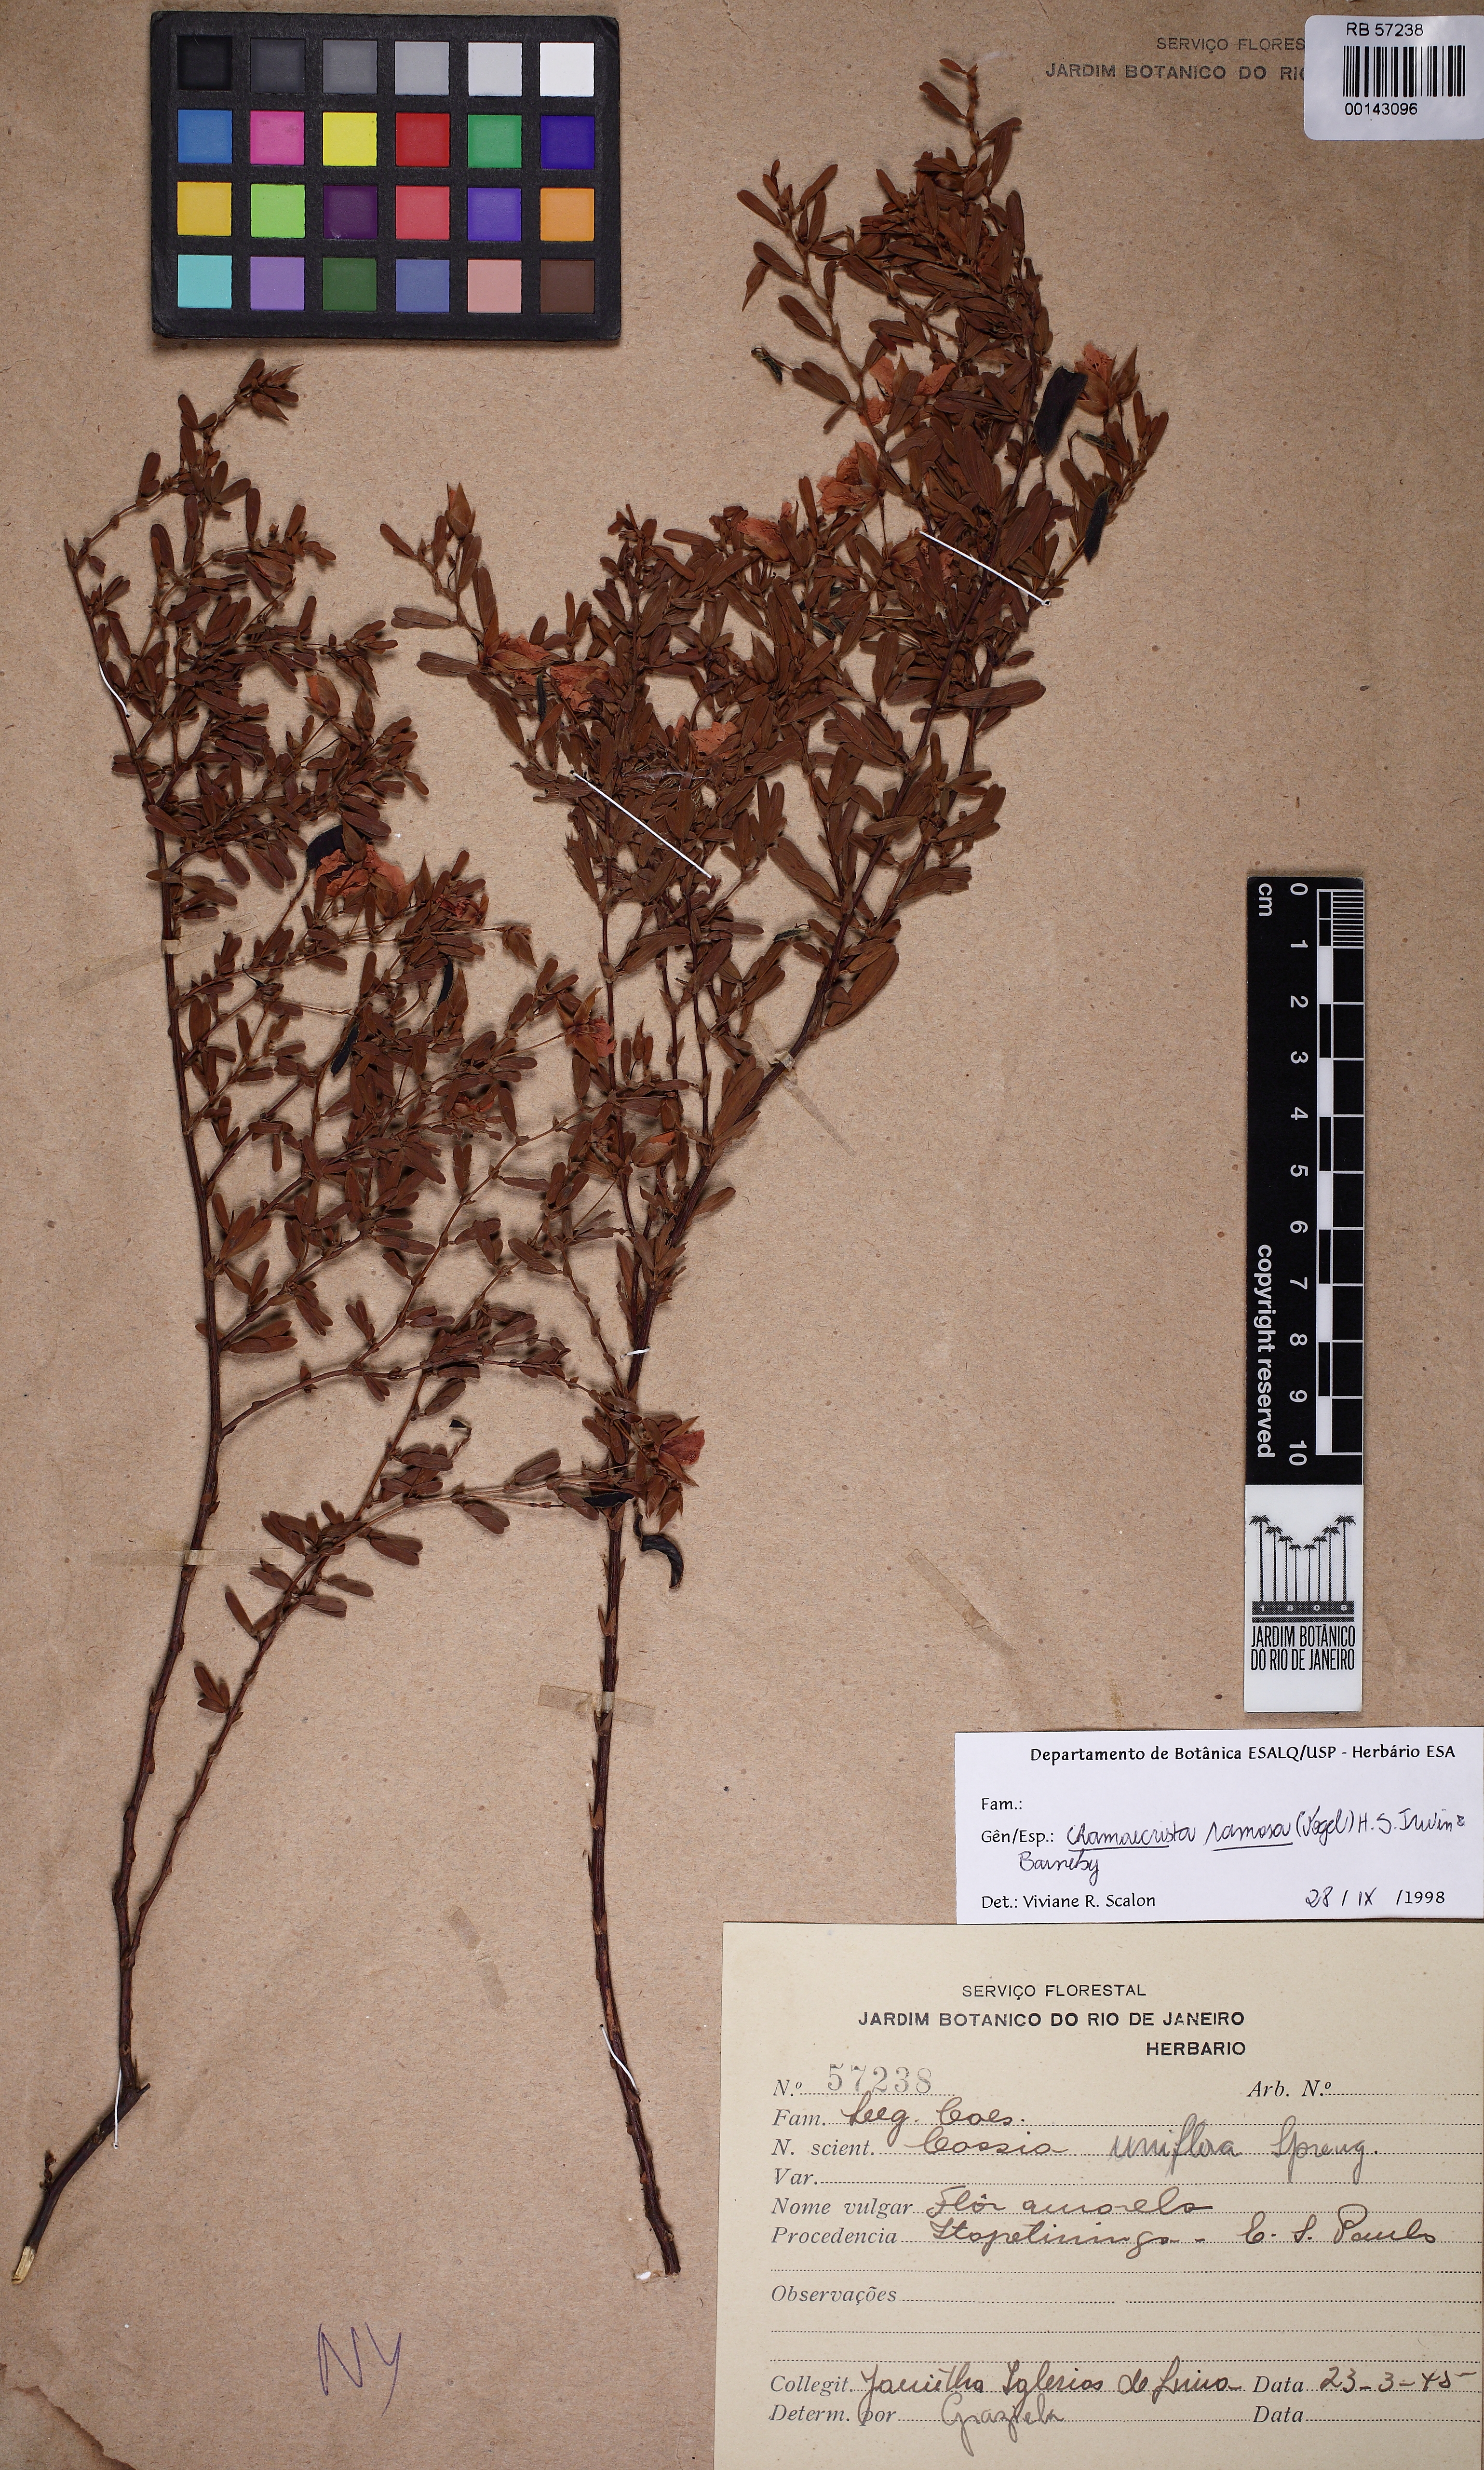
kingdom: Plantae
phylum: Tracheophyta
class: Magnoliopsida
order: Fabales
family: Fabaceae
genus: Chamaecrista
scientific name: Chamaecrista ramosa
